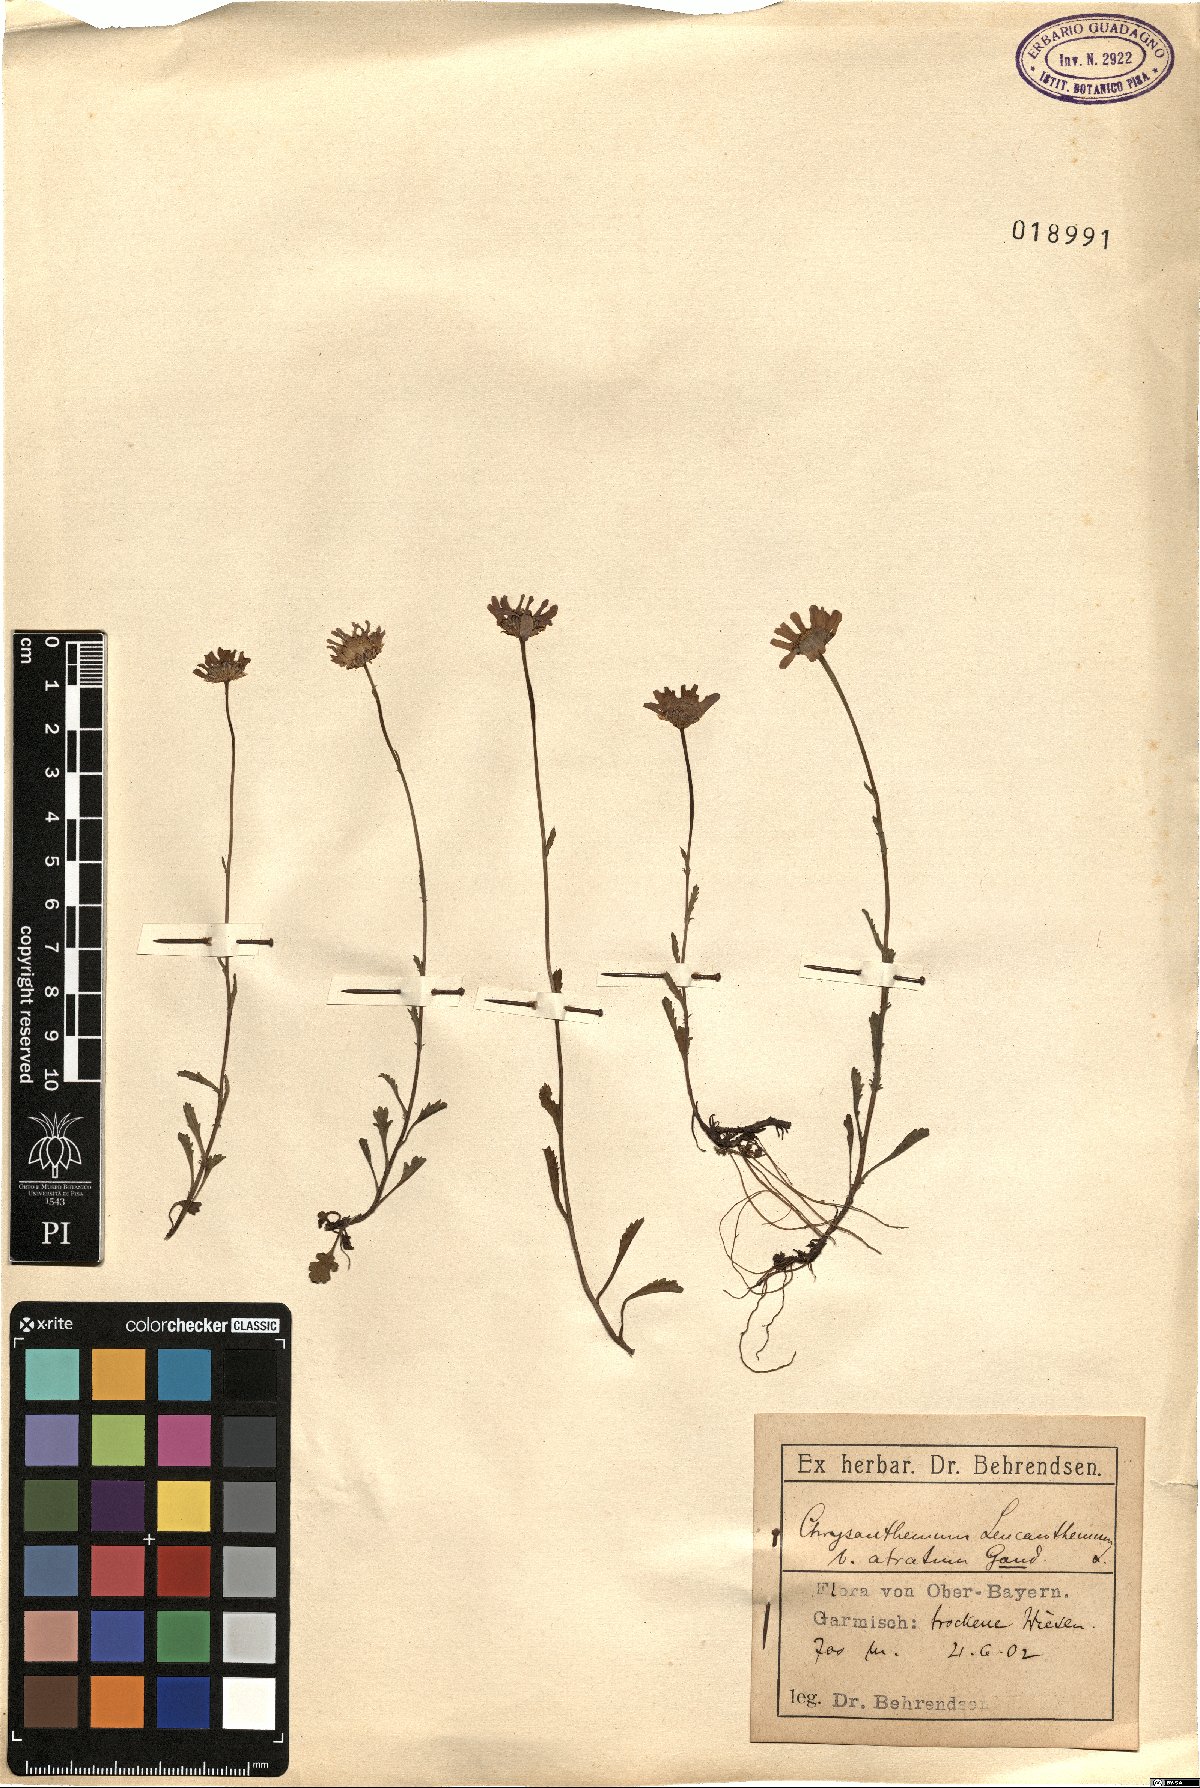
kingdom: Plantae
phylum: Tracheophyta
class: Magnoliopsida
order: Asterales
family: Asteraceae
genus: Leucanthemum
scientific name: Leucanthemum vulgare
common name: Oxeye daisy
